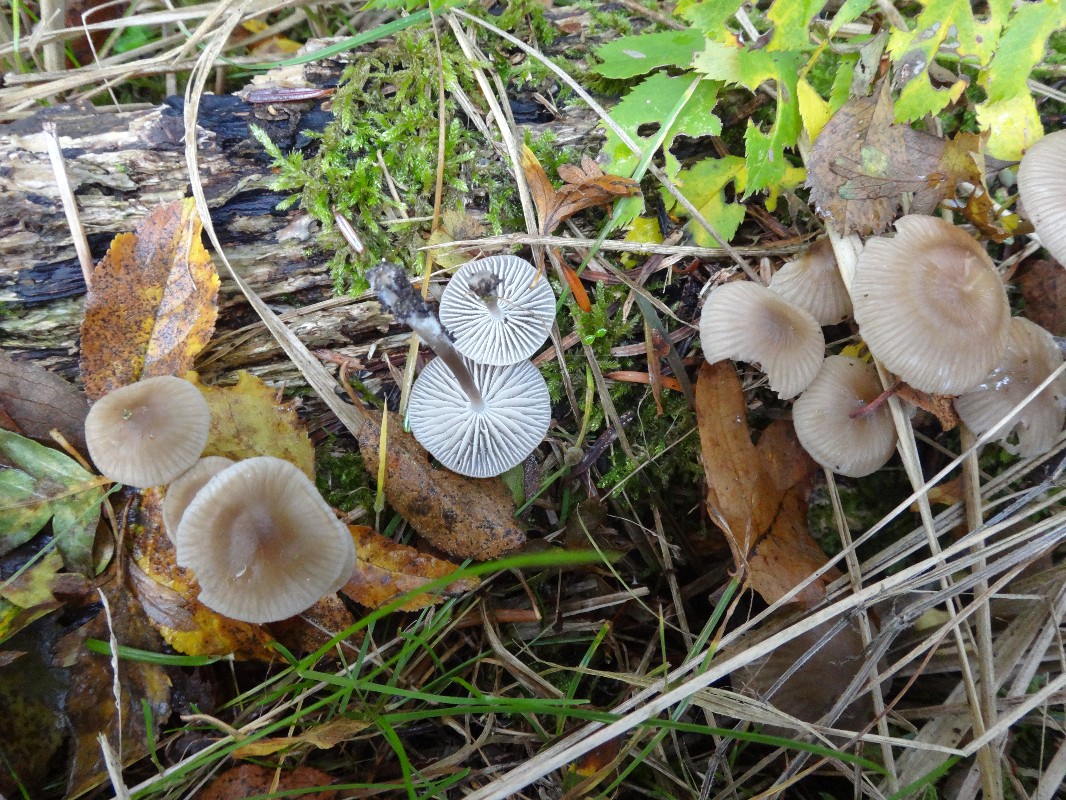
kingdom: Fungi
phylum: Basidiomycota
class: Agaricomycetes
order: Agaricales
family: Mycenaceae
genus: Mycena
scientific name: Mycena galericulata
